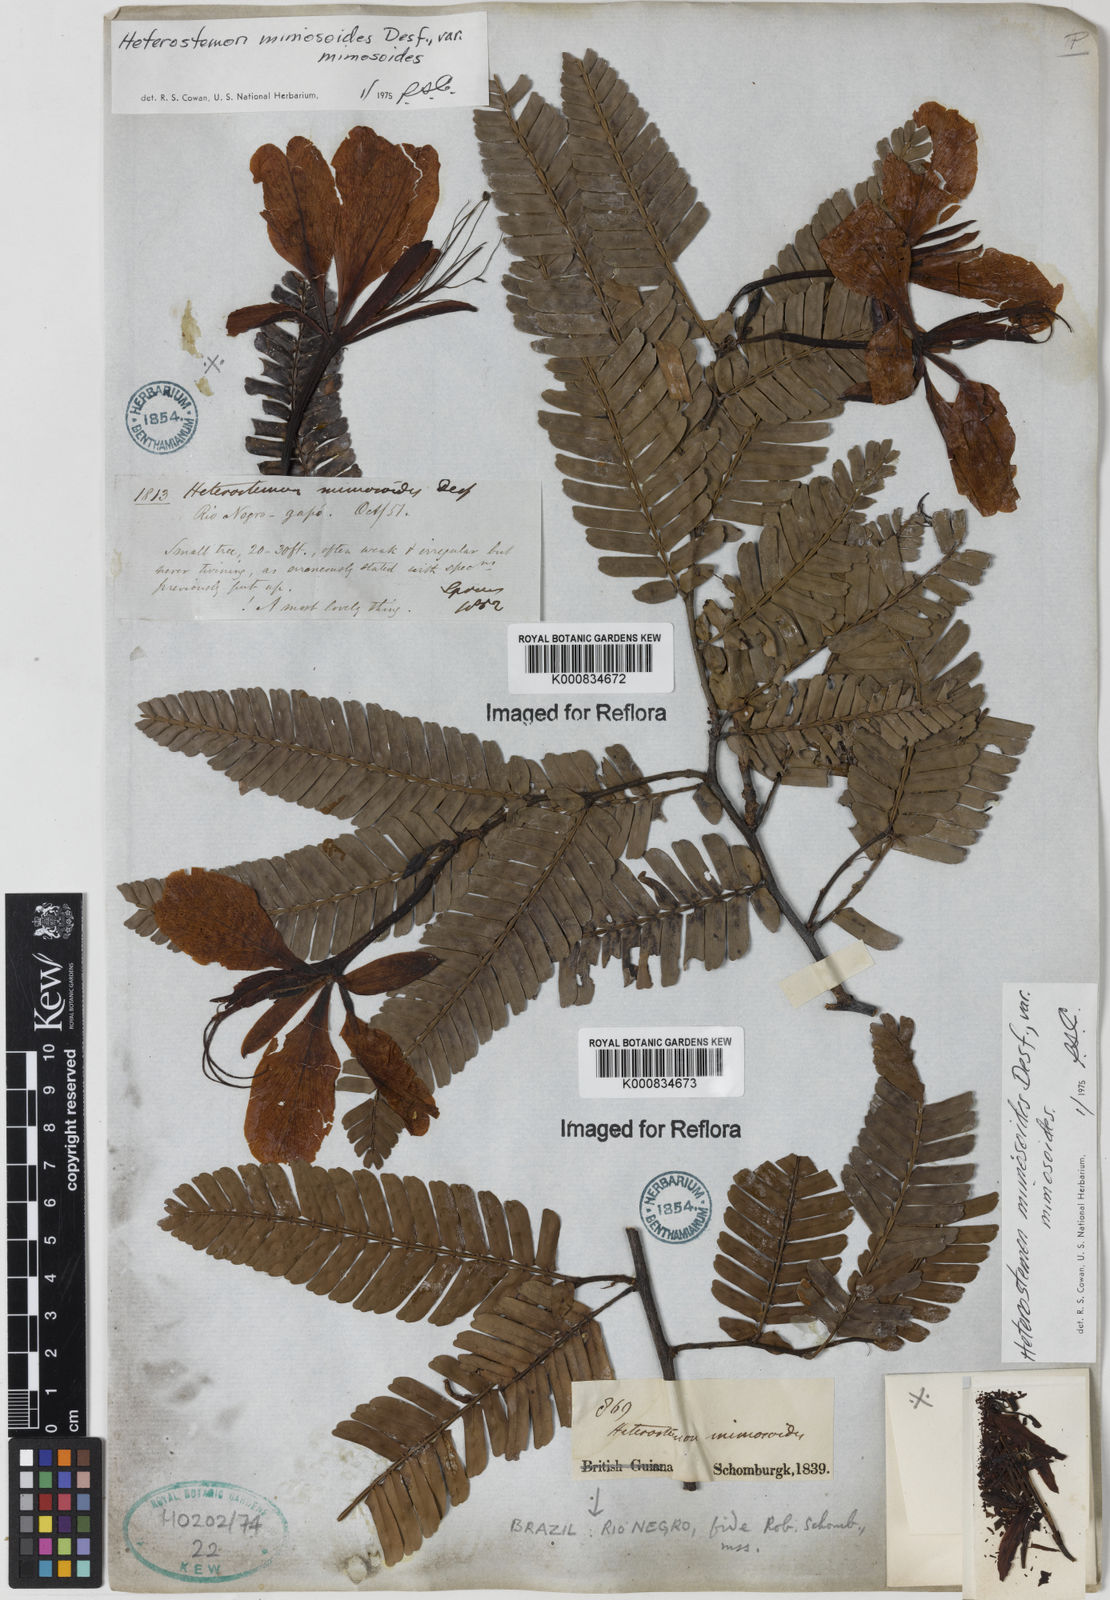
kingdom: Plantae
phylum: Tracheophyta
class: Magnoliopsida
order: Fabales
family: Fabaceae
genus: Heterostemon
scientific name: Heterostemon mimosoides
